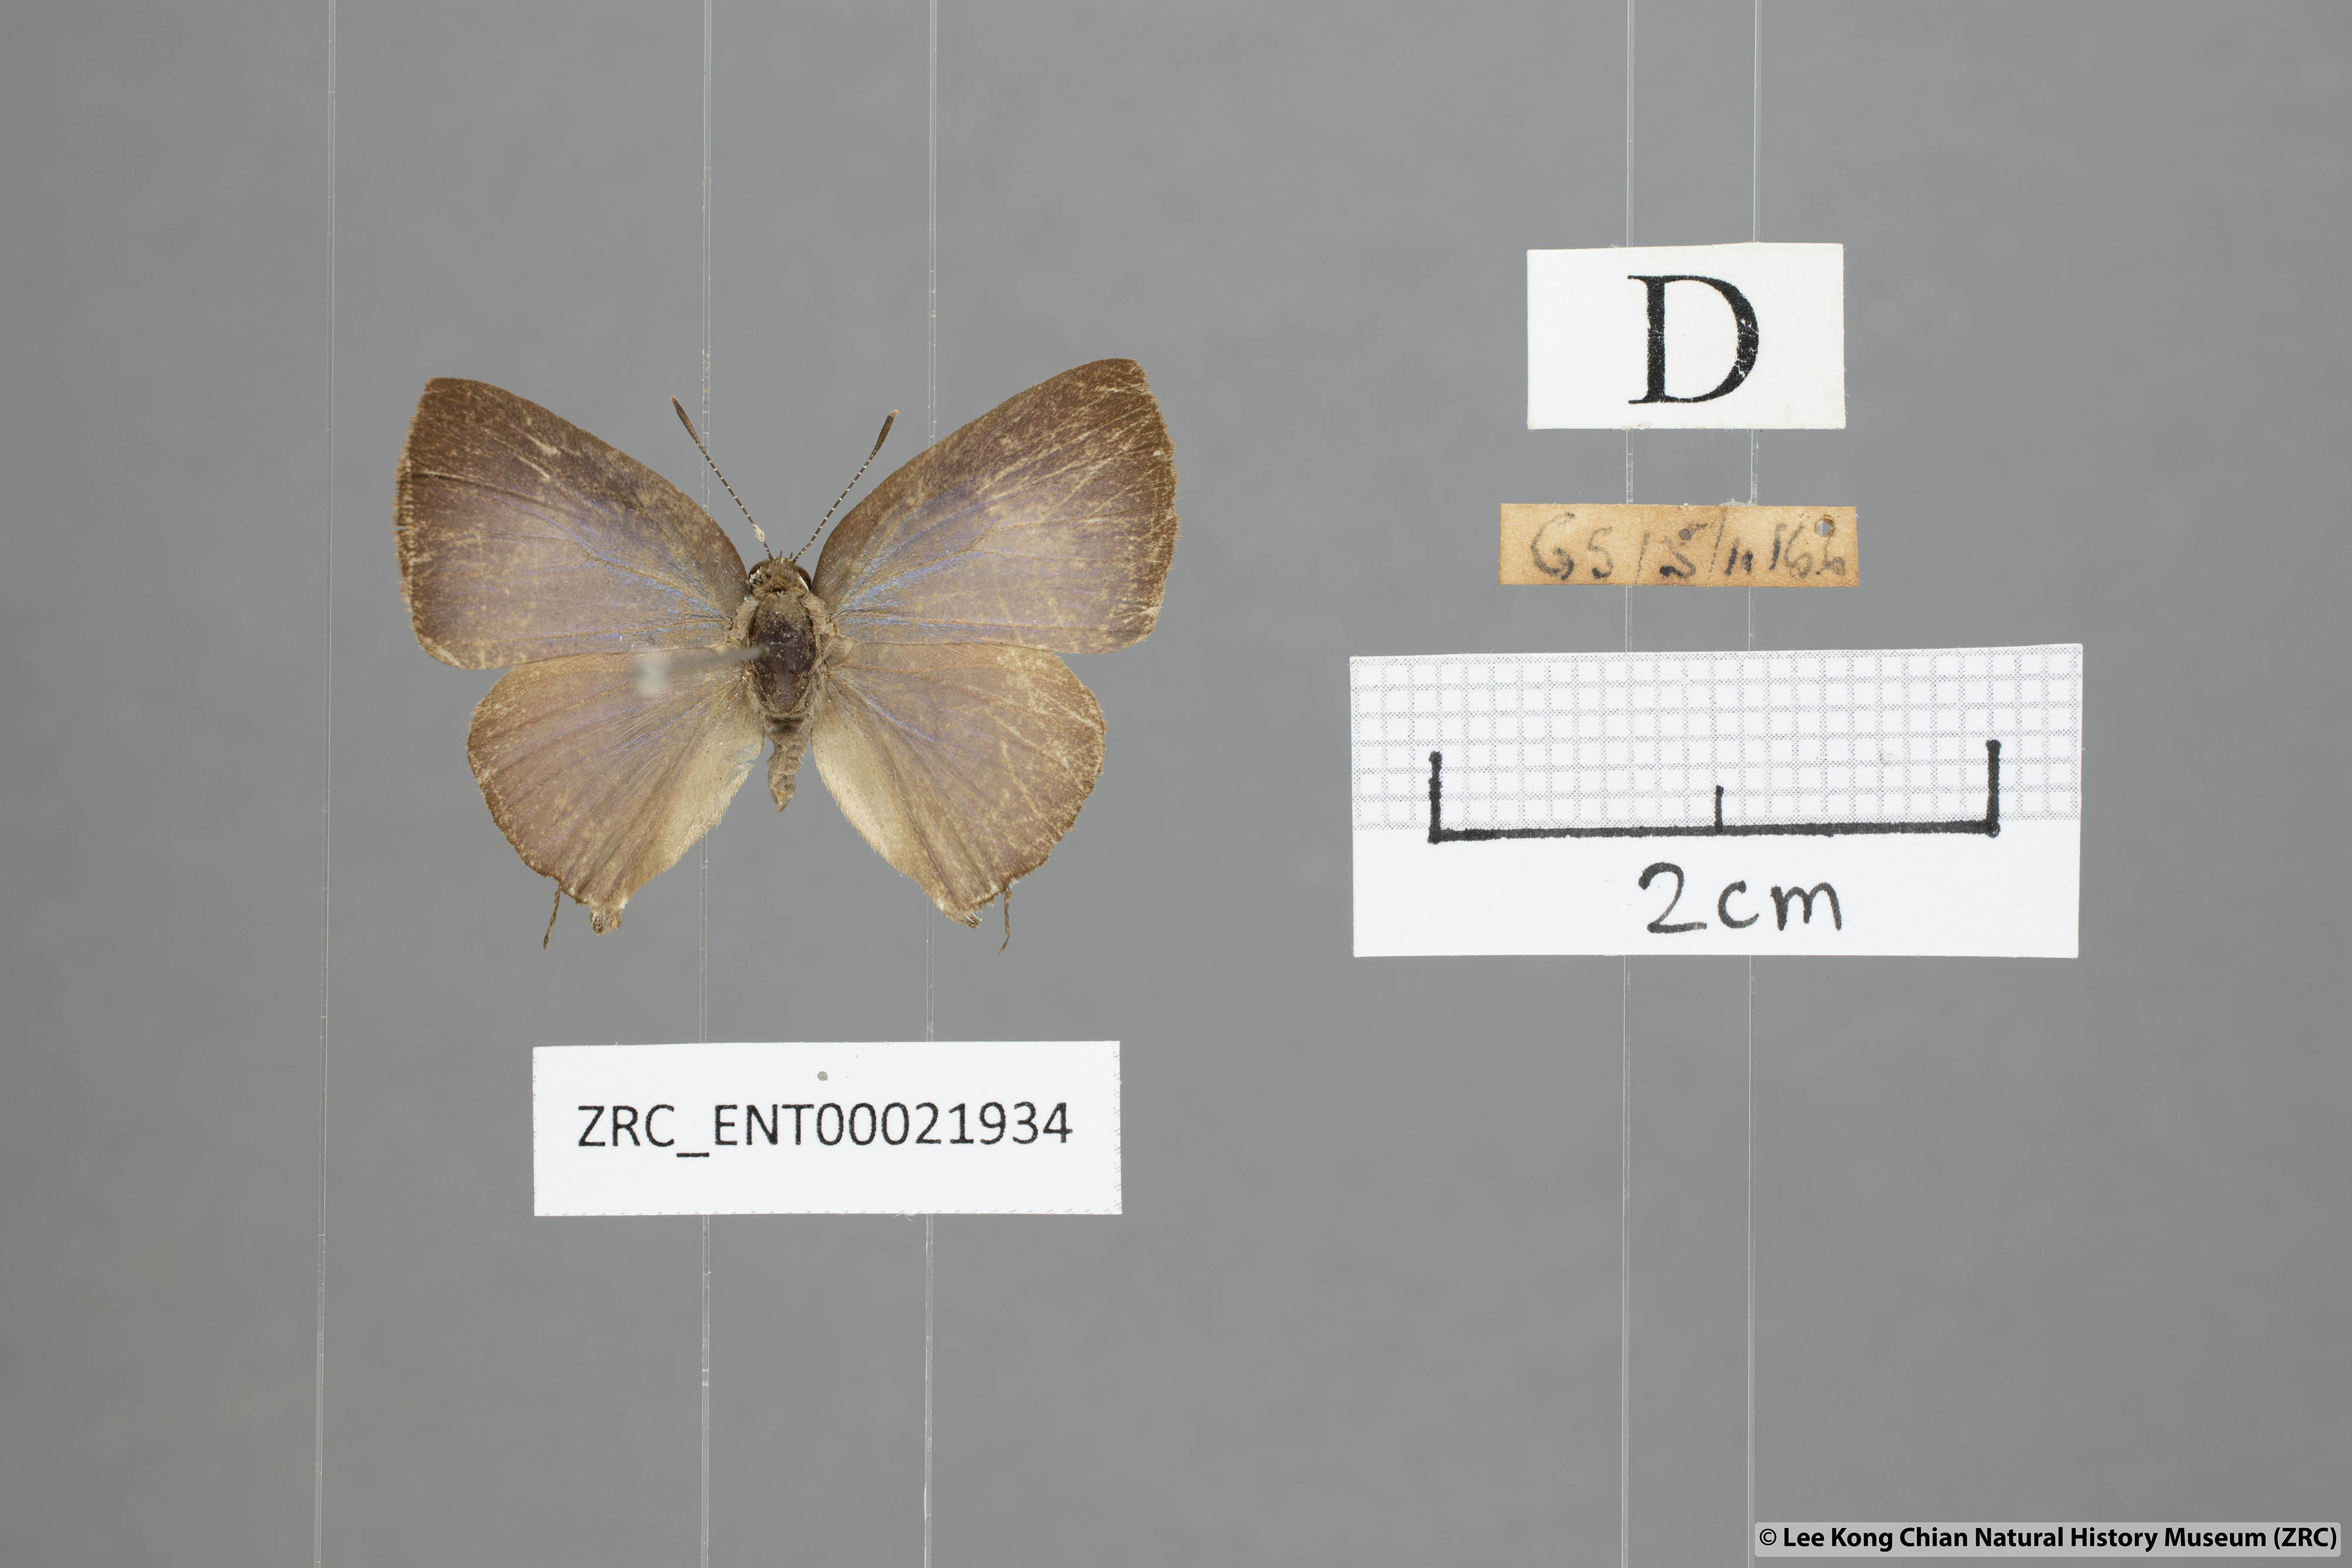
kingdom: Animalia
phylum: Arthropoda
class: Insecta
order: Lepidoptera
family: Lycaenidae
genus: Rapala
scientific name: Rapala varuna
